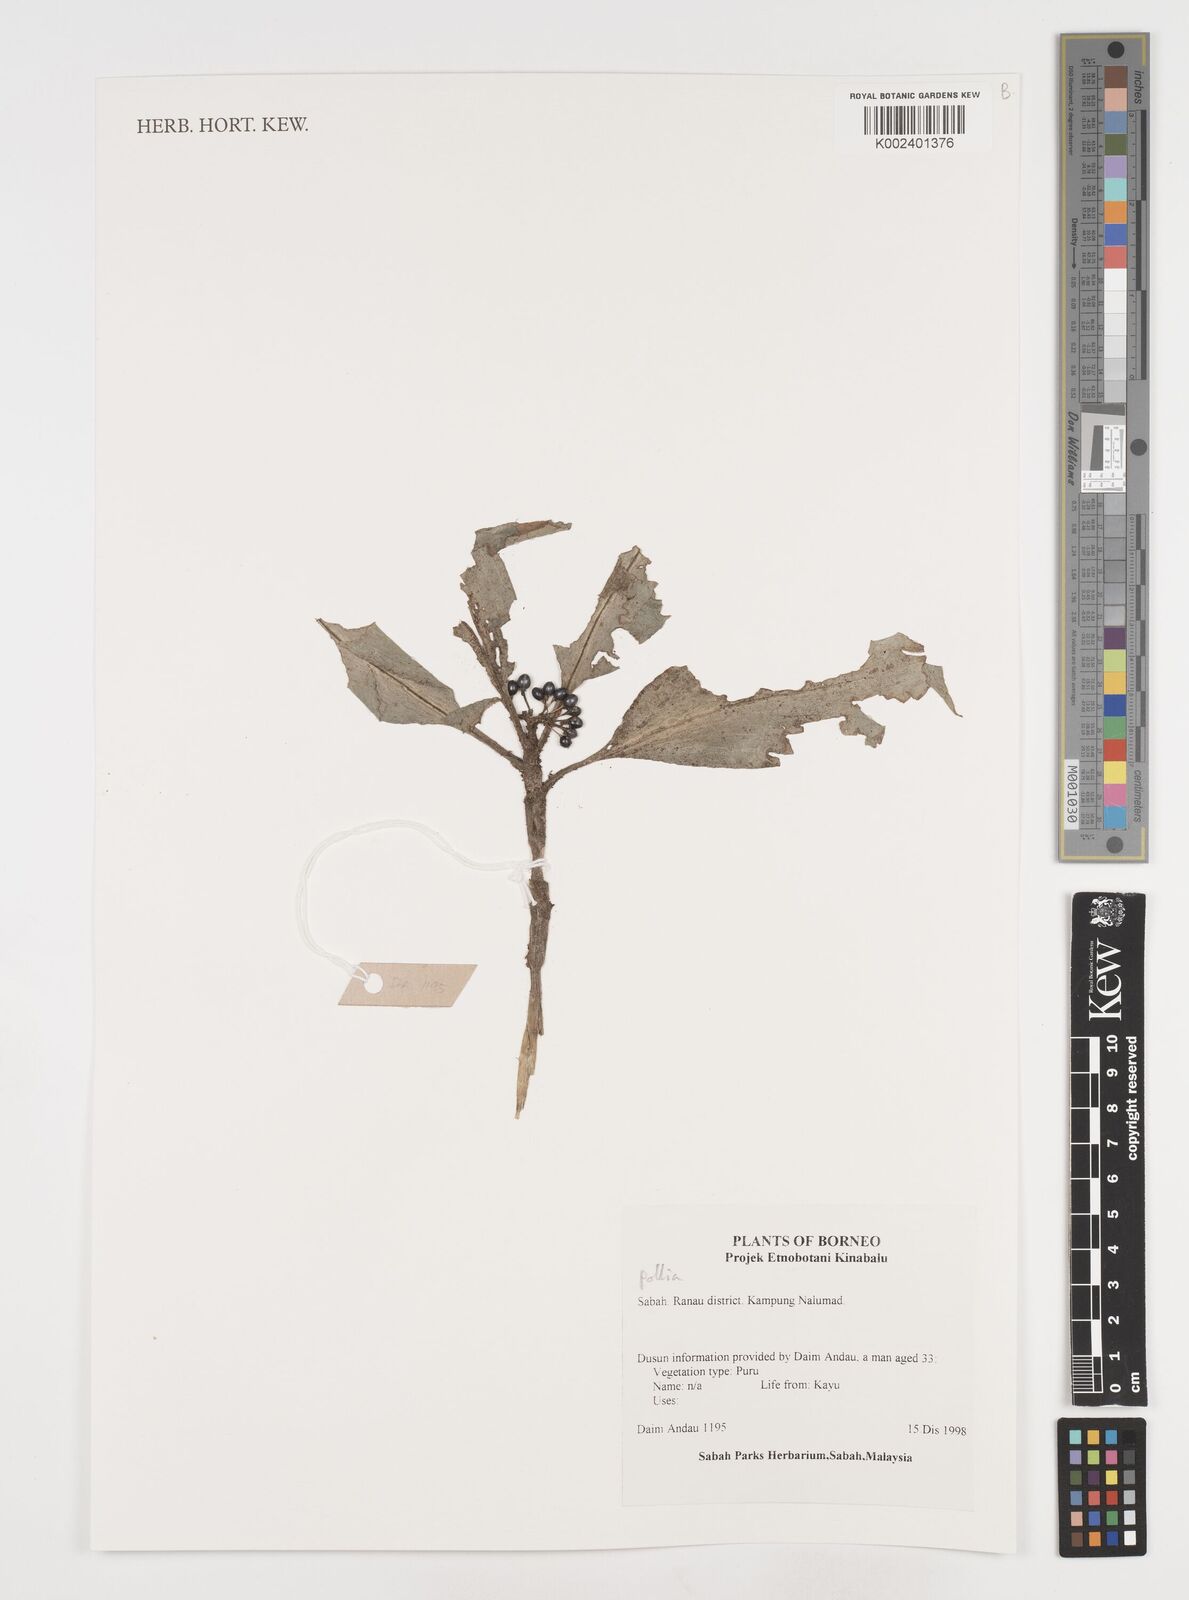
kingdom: Plantae
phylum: Tracheophyta
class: Liliopsida
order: Commelinales
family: Commelinaceae
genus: Pollia
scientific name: Pollia
